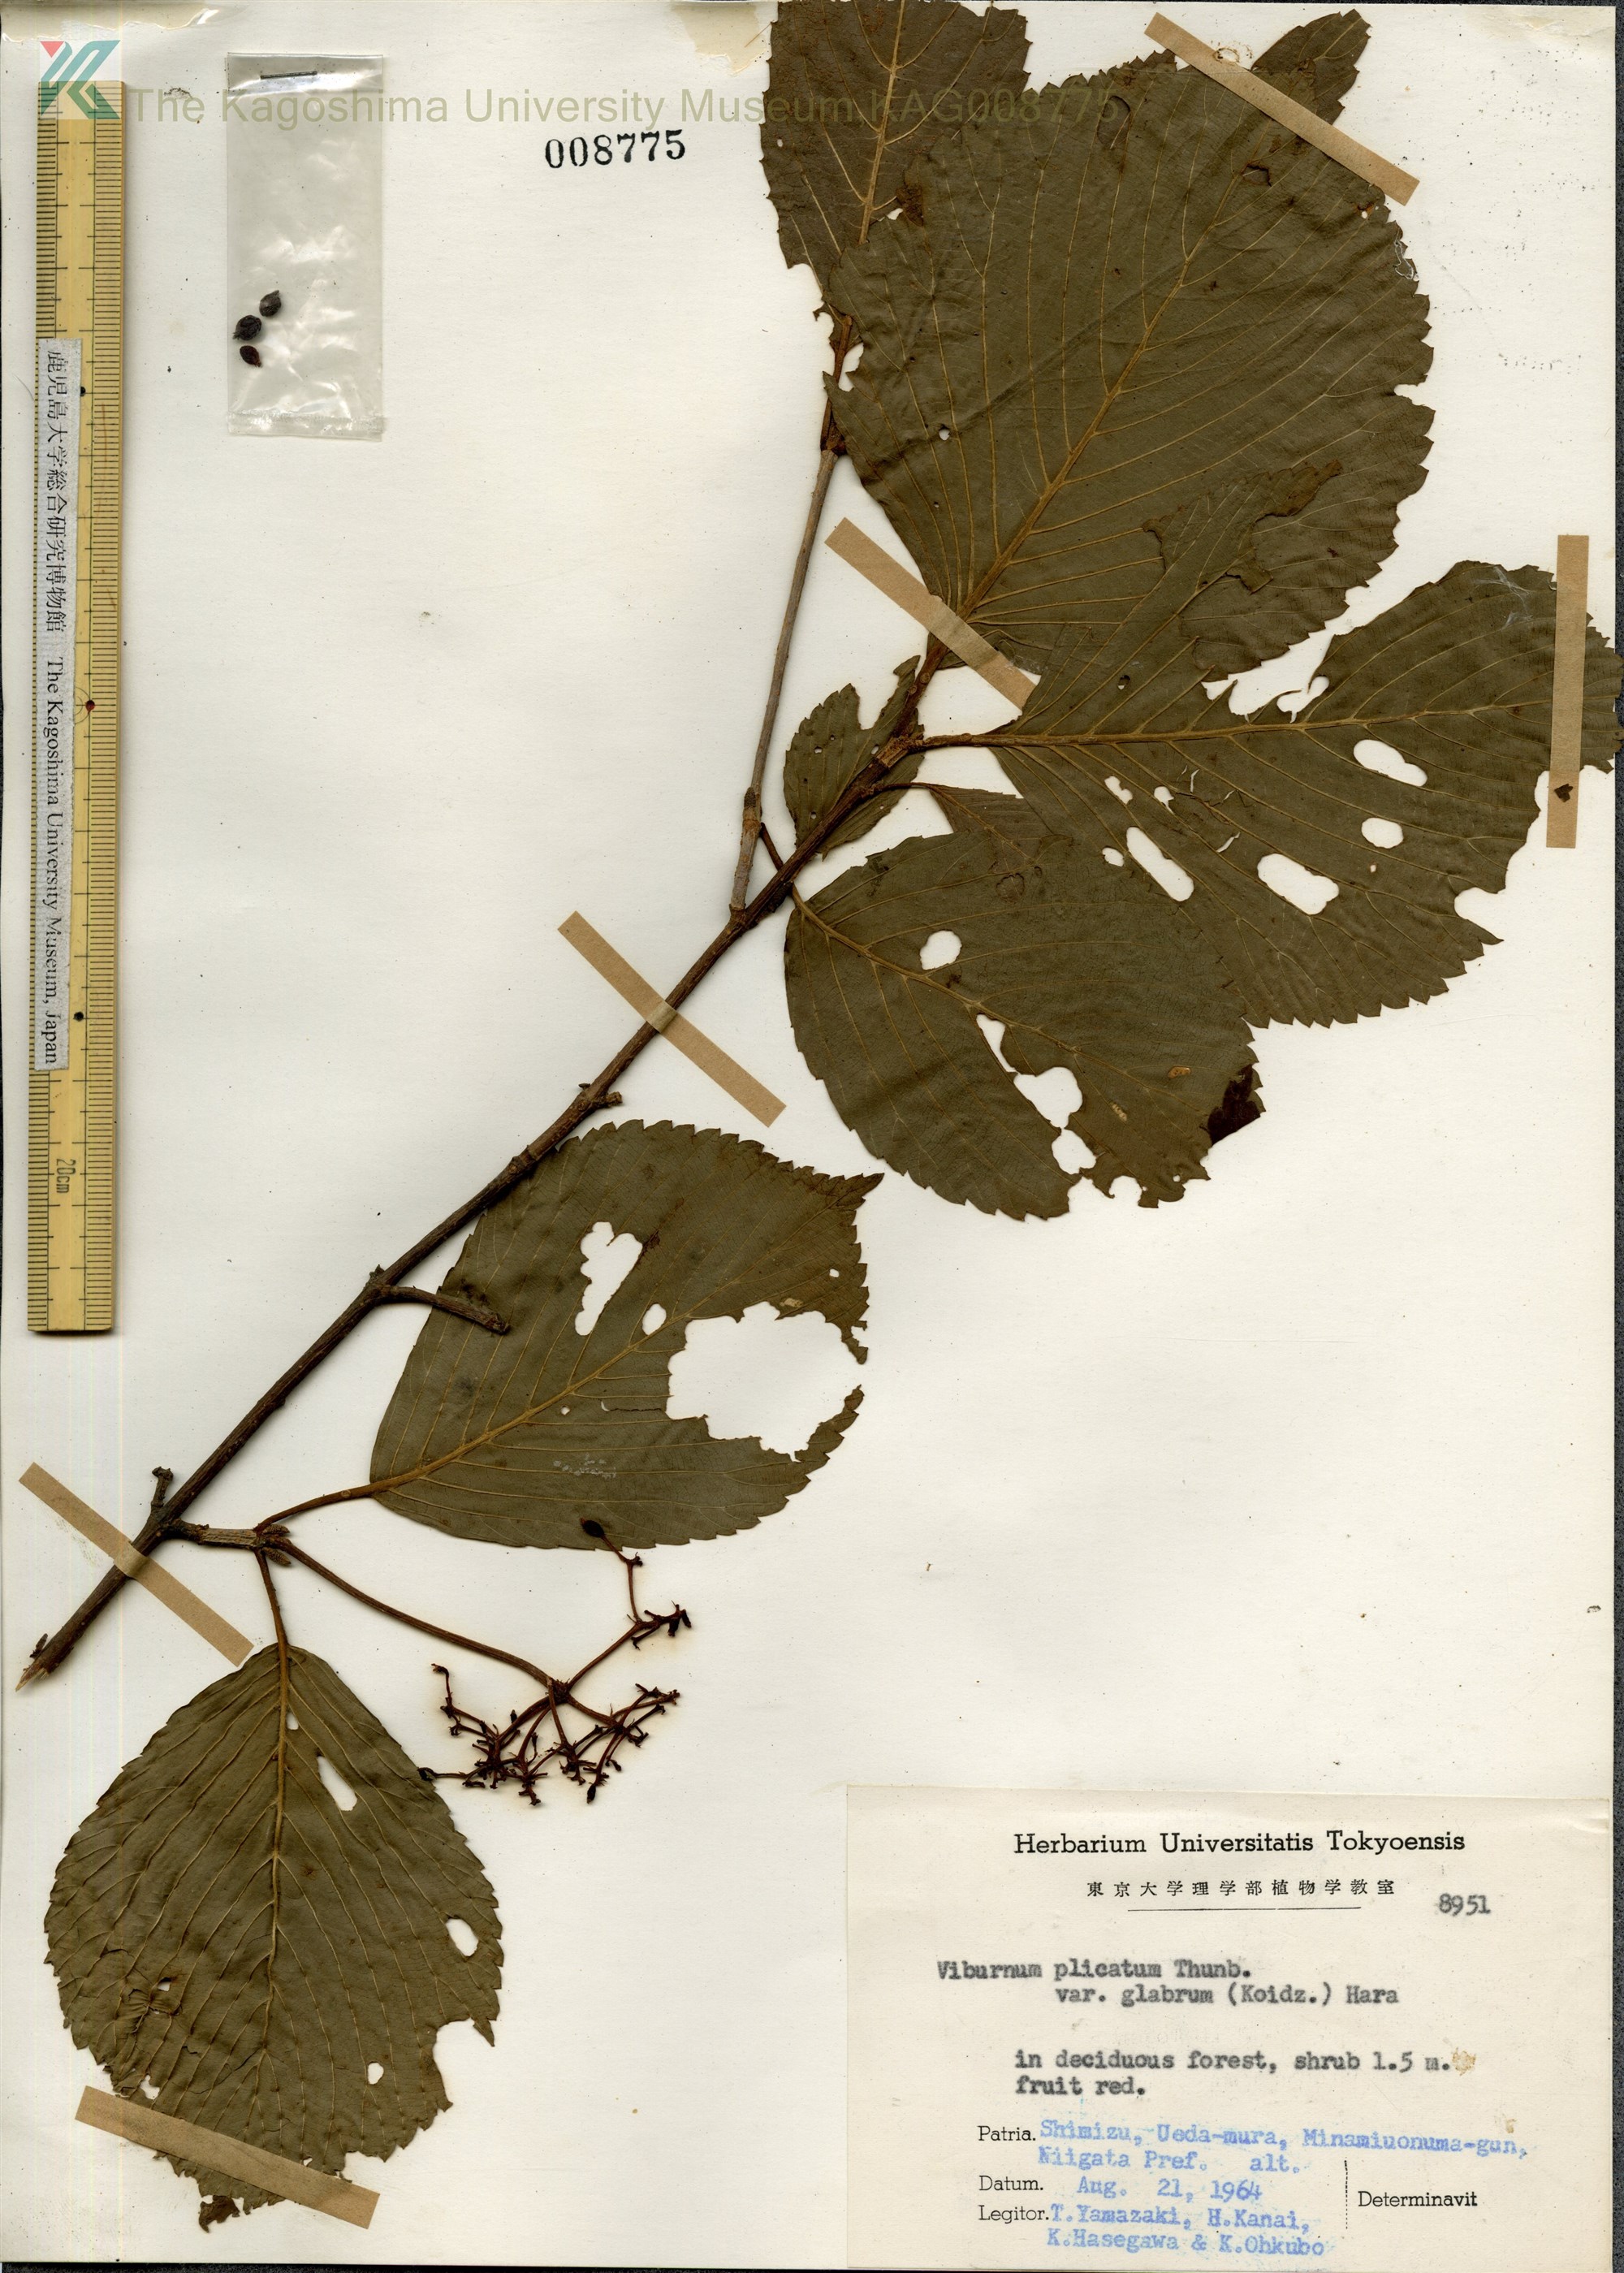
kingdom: Plantae
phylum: Tracheophyta
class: Magnoliopsida
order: Dipsacales
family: Viburnaceae
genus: Viburnum
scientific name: Viburnum plicatum
